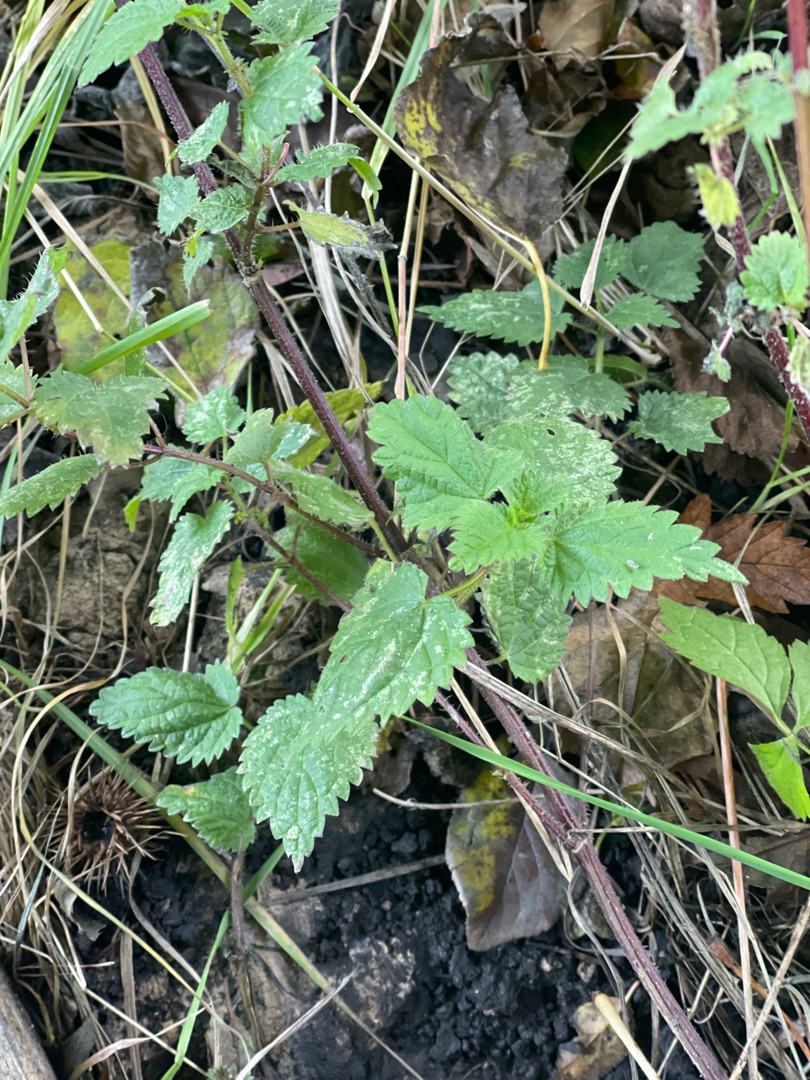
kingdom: Plantae
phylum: Tracheophyta
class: Magnoliopsida
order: Rosales
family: Urticaceae
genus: Urtica
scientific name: Urtica dioica
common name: Stor nælde
